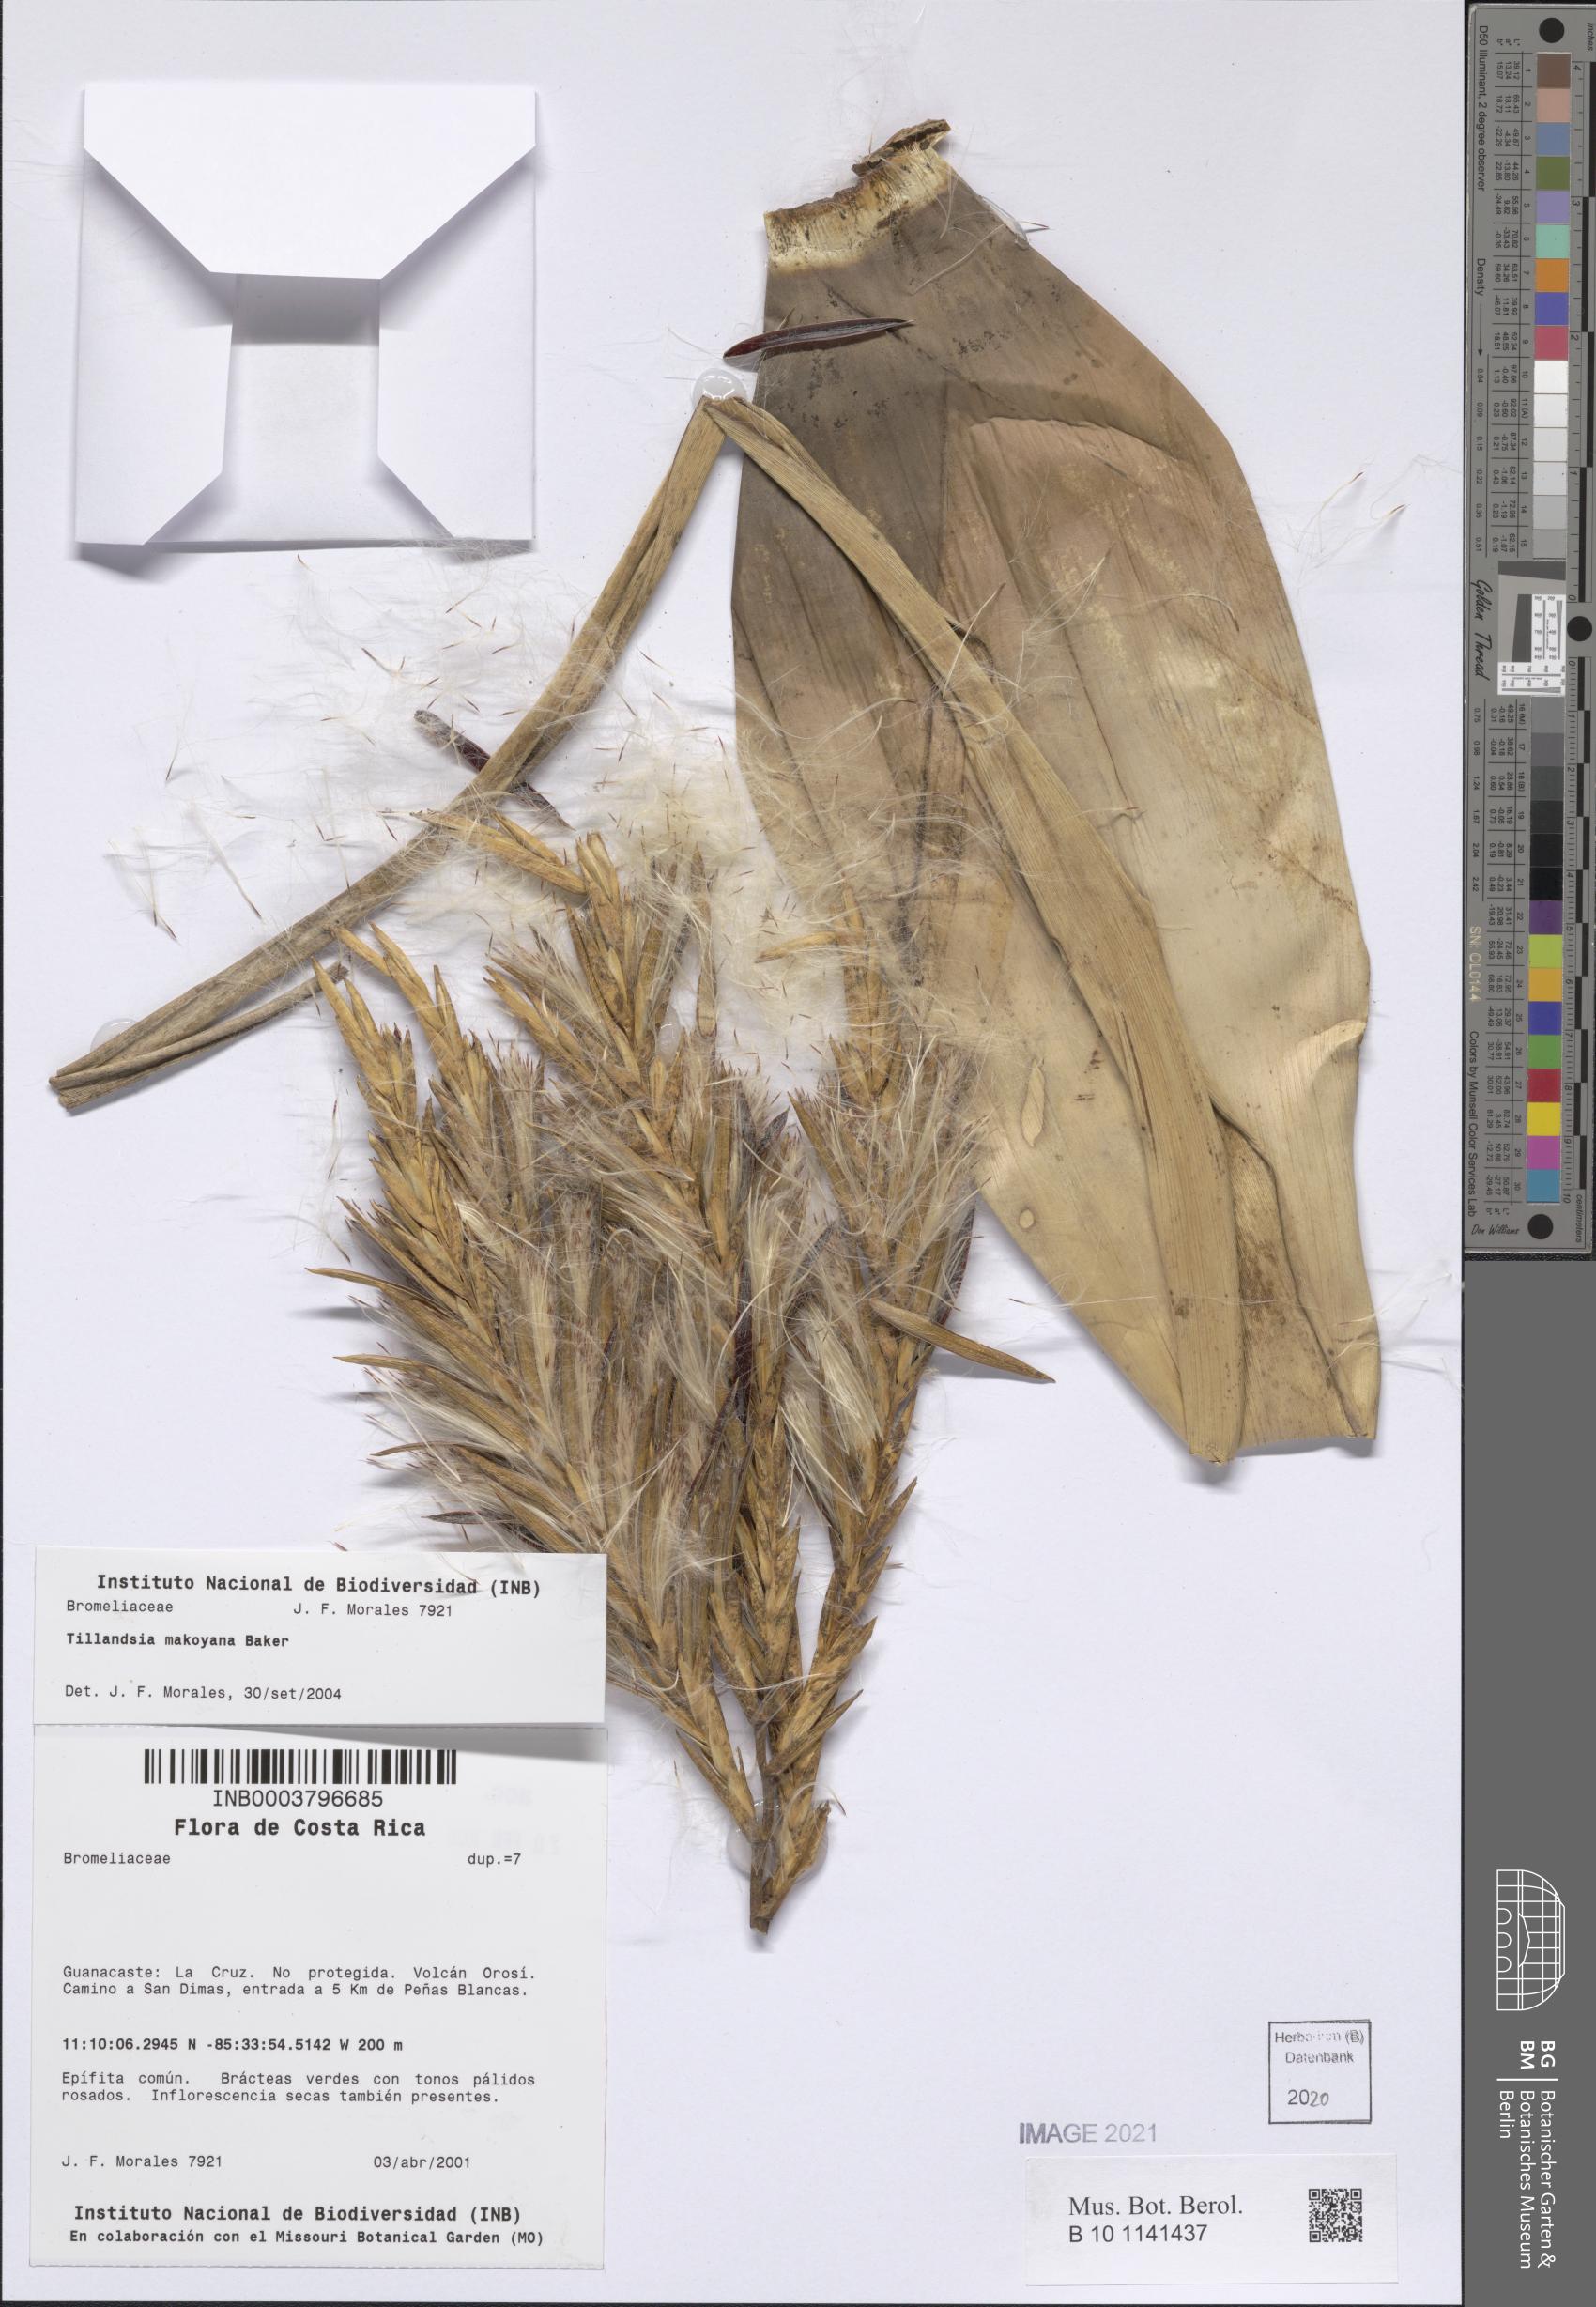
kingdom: Plantae
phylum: Tracheophyta
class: Liliopsida
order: Poales
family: Bromeliaceae
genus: Tillandsia
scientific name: Tillandsia makoyana
